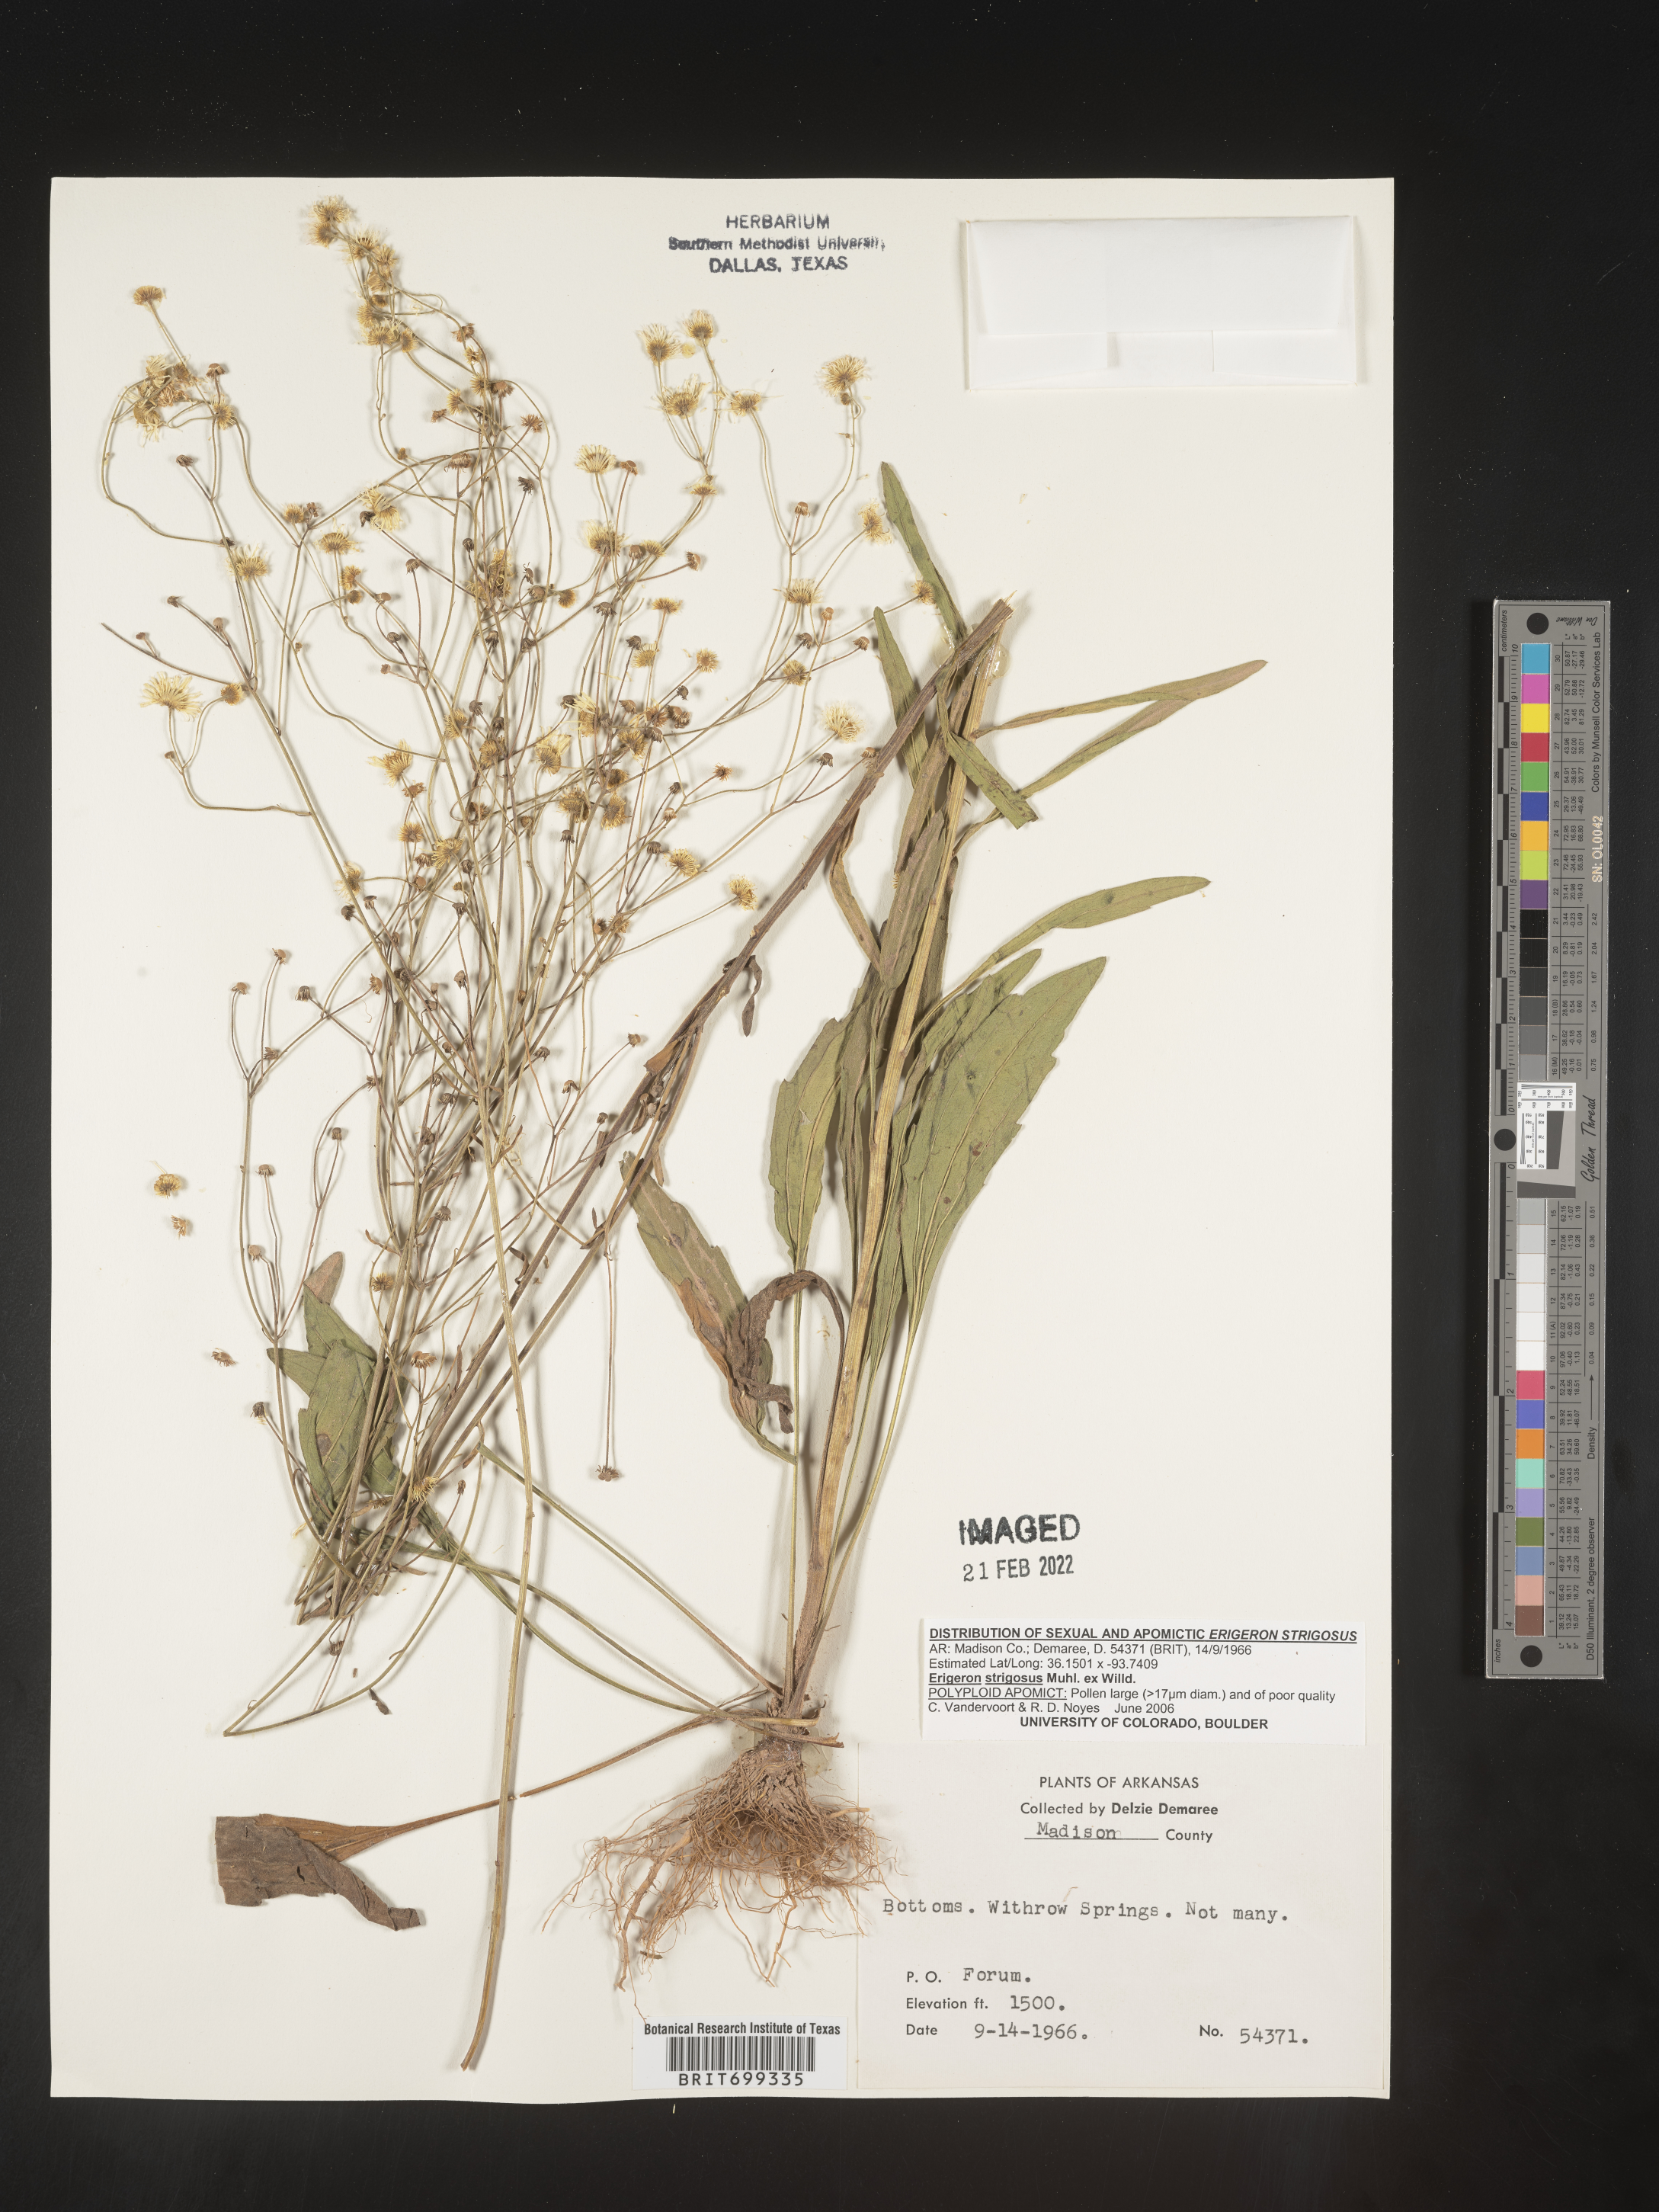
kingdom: Plantae
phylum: Tracheophyta
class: Magnoliopsida
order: Asterales
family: Asteraceae
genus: Erigeron
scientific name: Erigeron strigosus
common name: Common eastern fleabane
